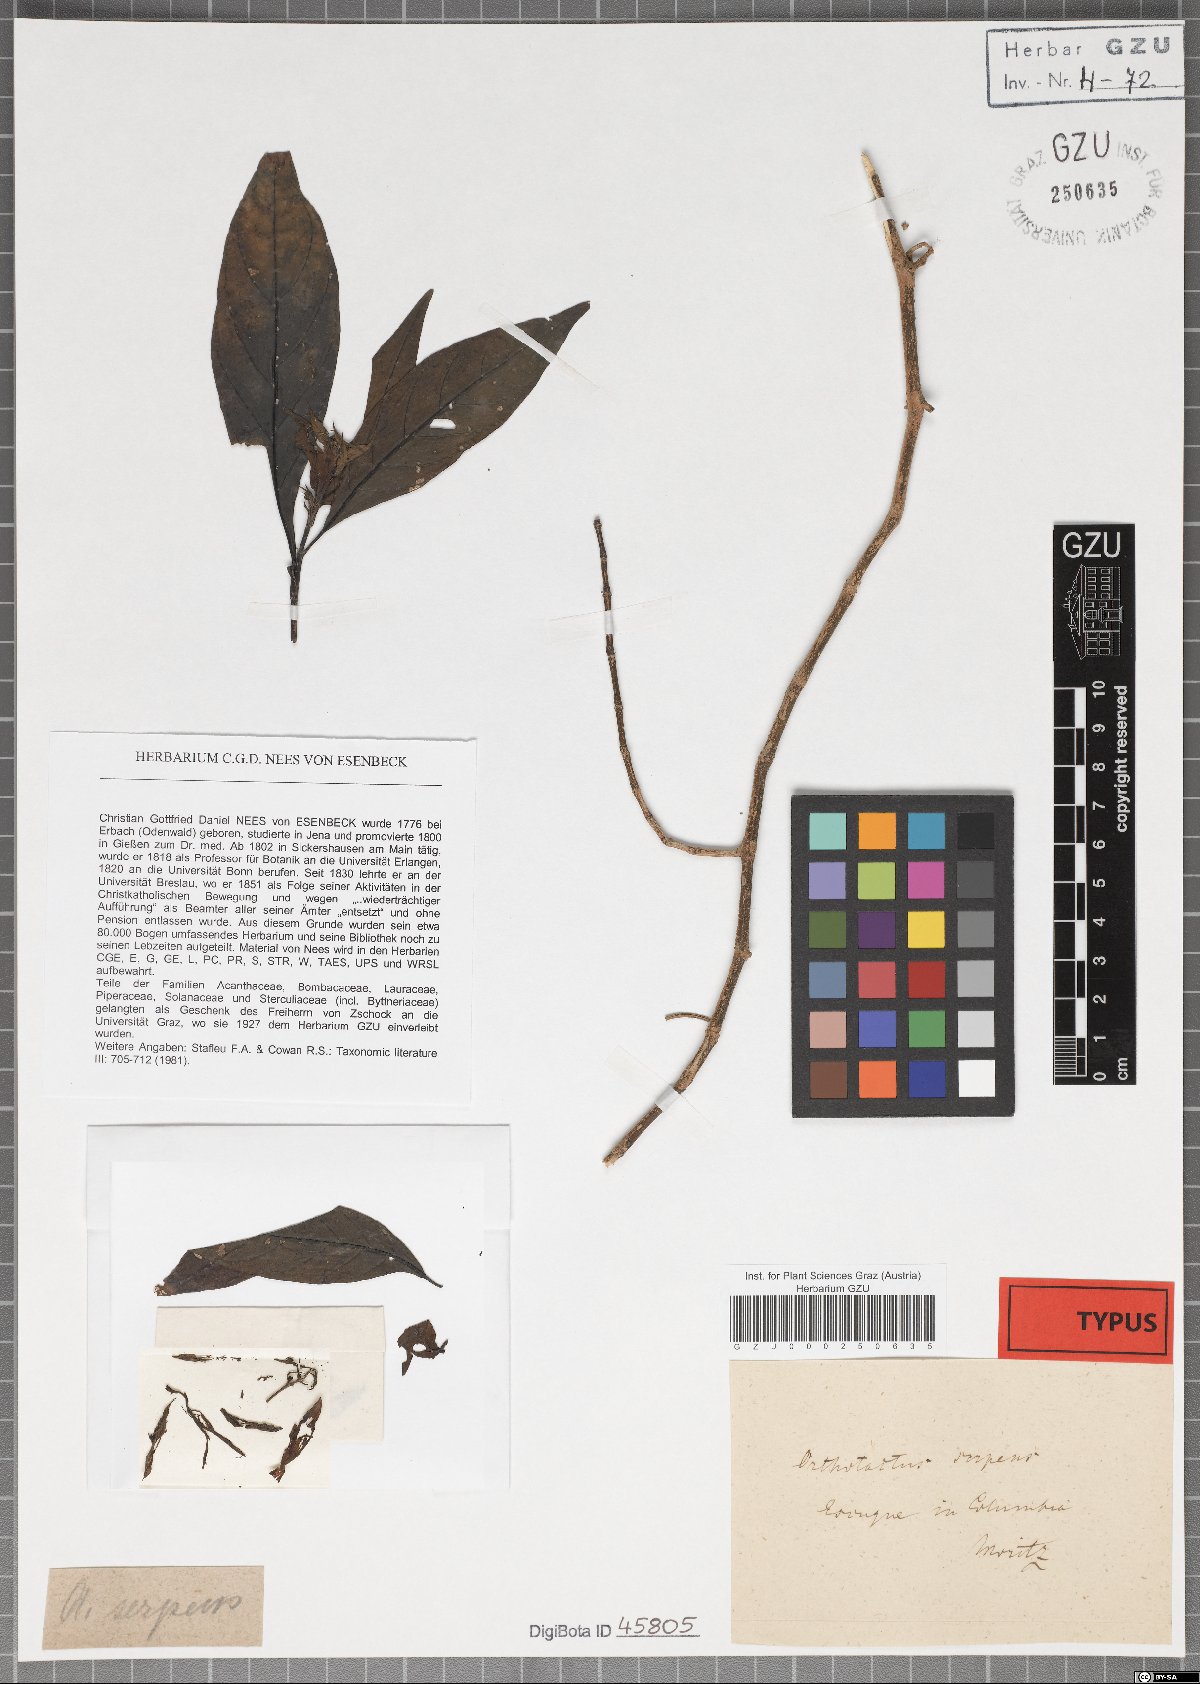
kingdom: Plantae
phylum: Tracheophyta
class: Magnoliopsida
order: Lamiales
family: Acanthaceae
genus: Justicia
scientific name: Justicia scheidweileri
